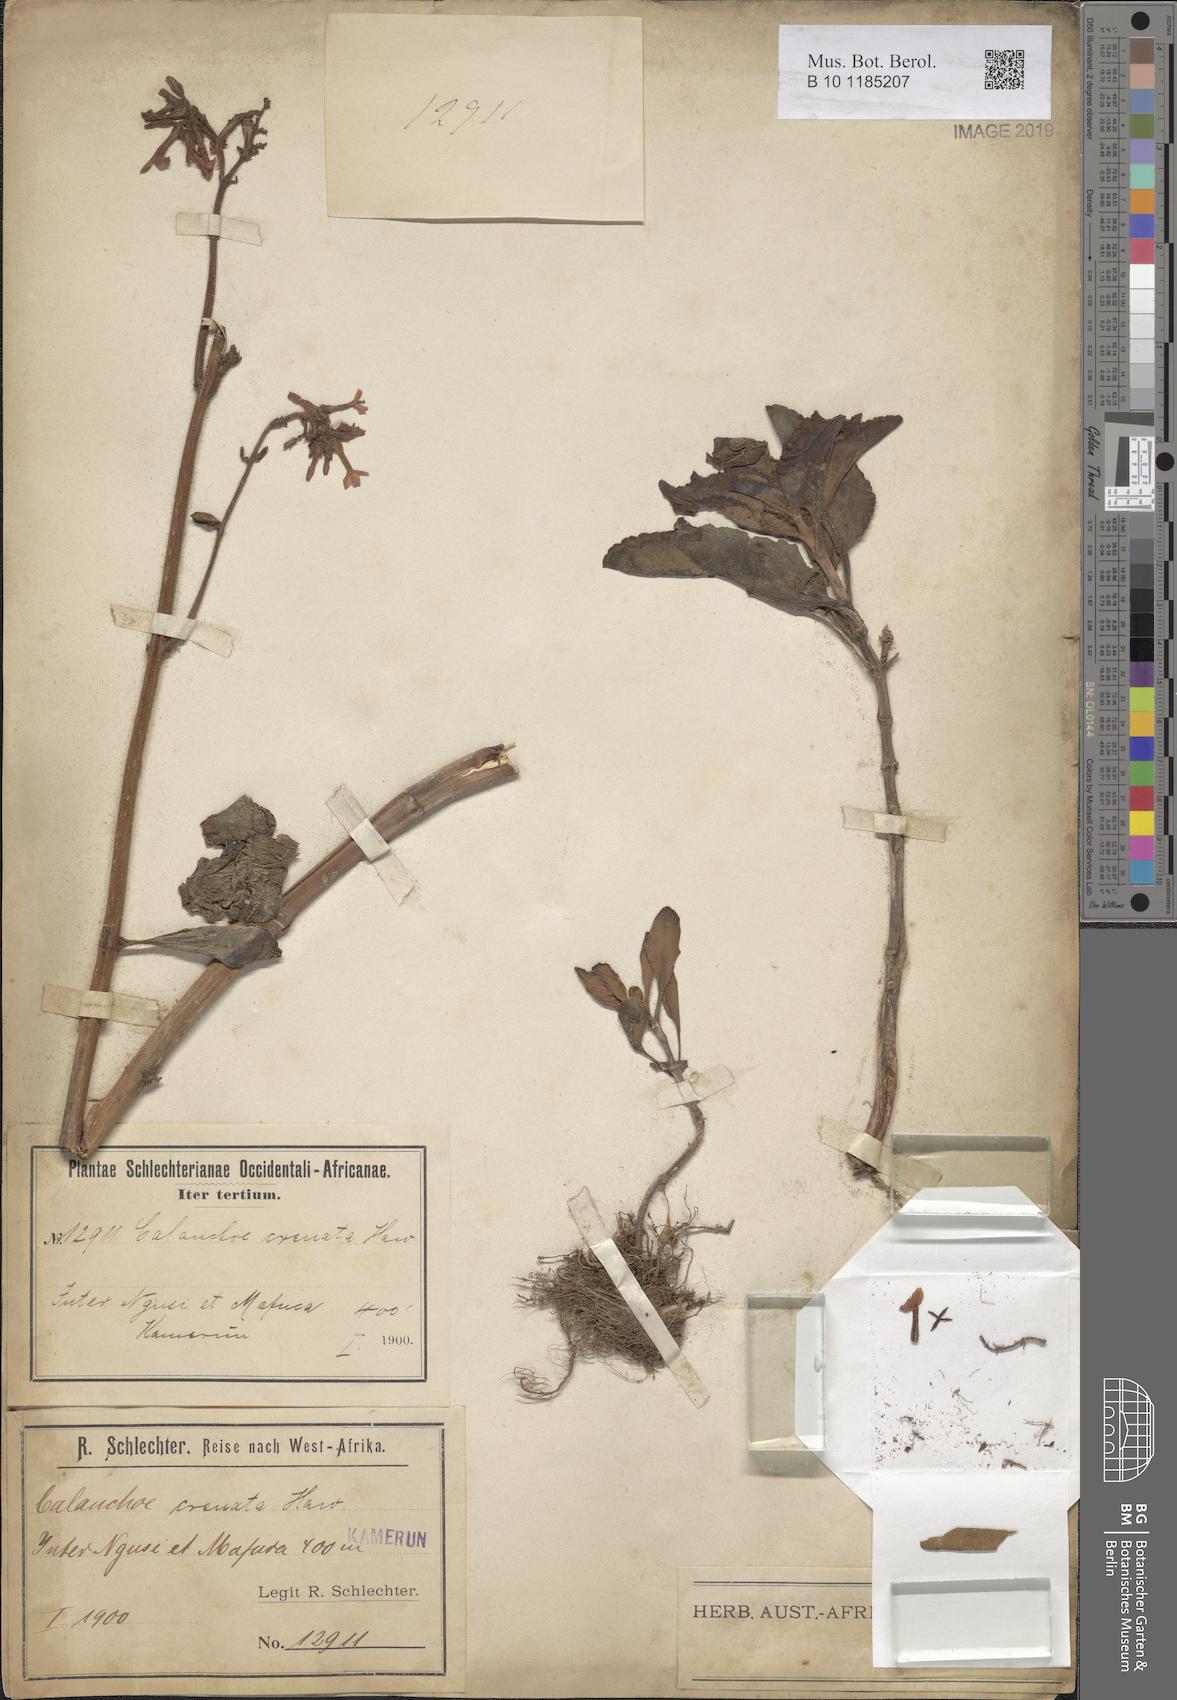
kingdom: Plantae
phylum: Tracheophyta
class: Magnoliopsida
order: Saxifragales
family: Crassulaceae
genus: Kalanchoe
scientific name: Kalanchoe crenata
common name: Neverdie
